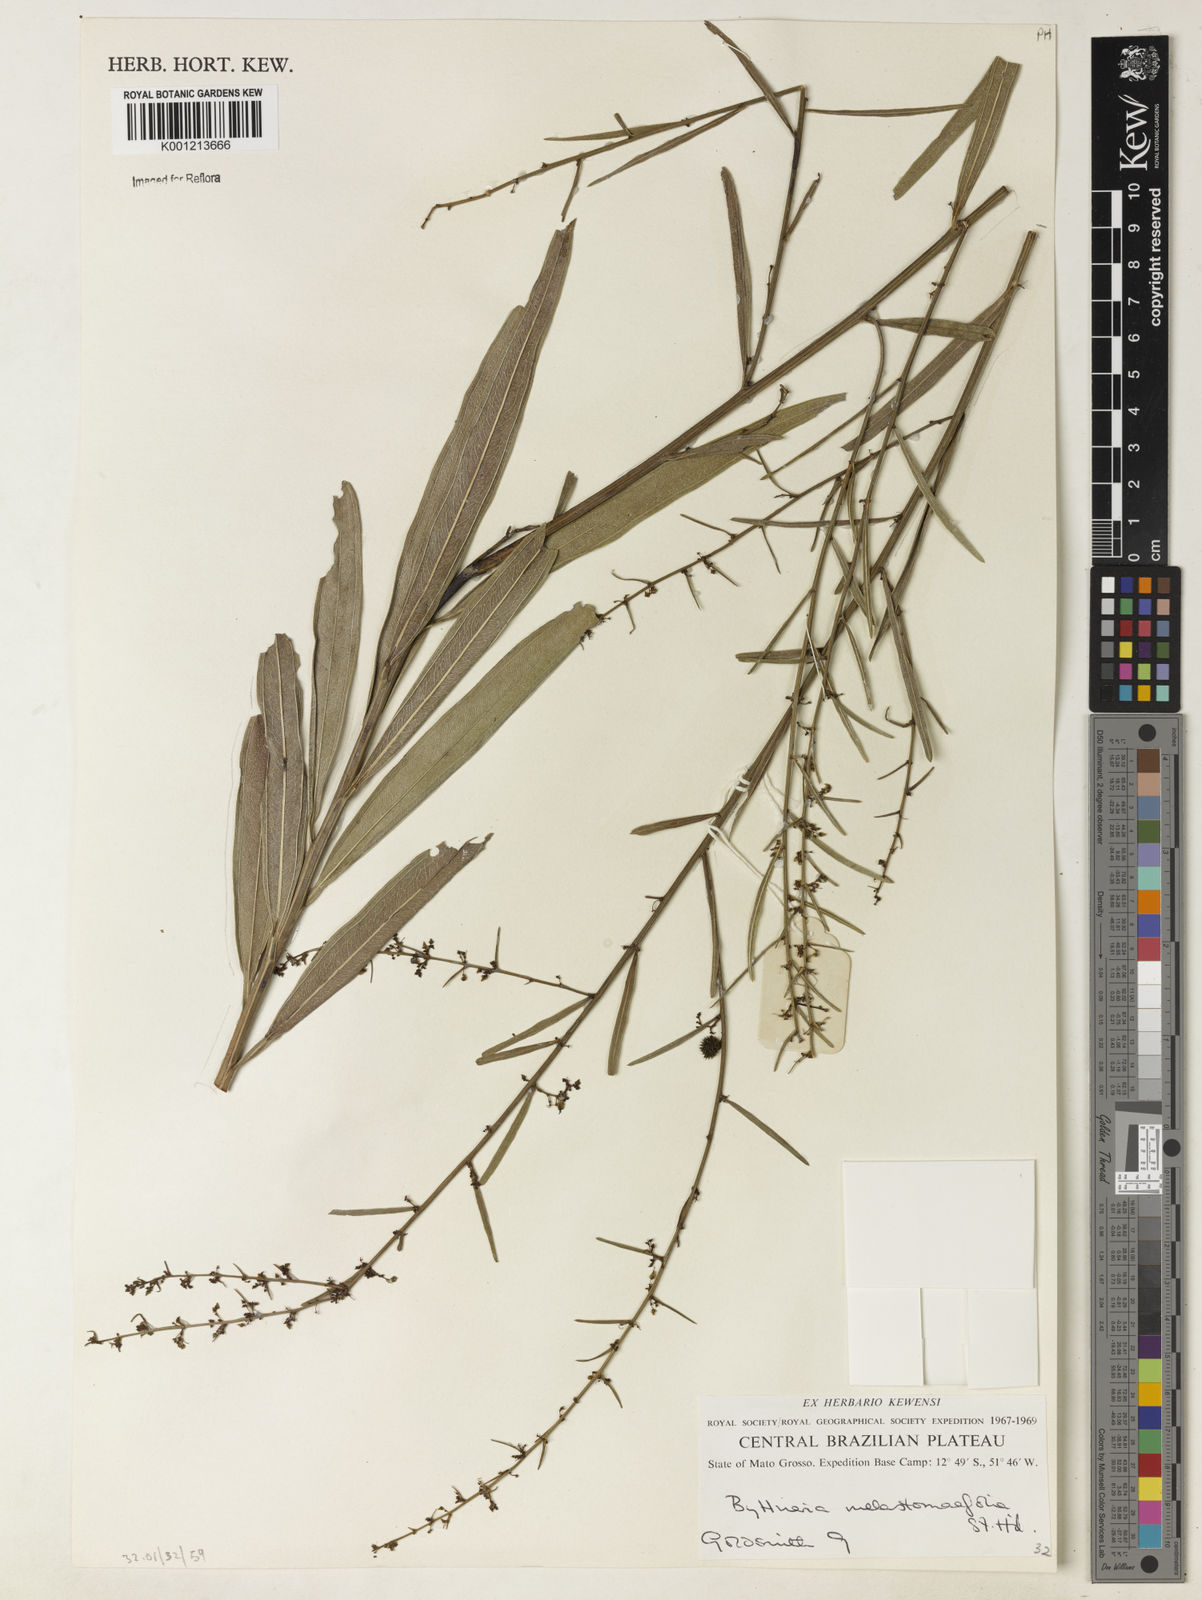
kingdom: Plantae
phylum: Tracheophyta
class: Magnoliopsida
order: Malvales
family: Malvaceae
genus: Byttneria
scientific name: Byttneria melastomifolia
